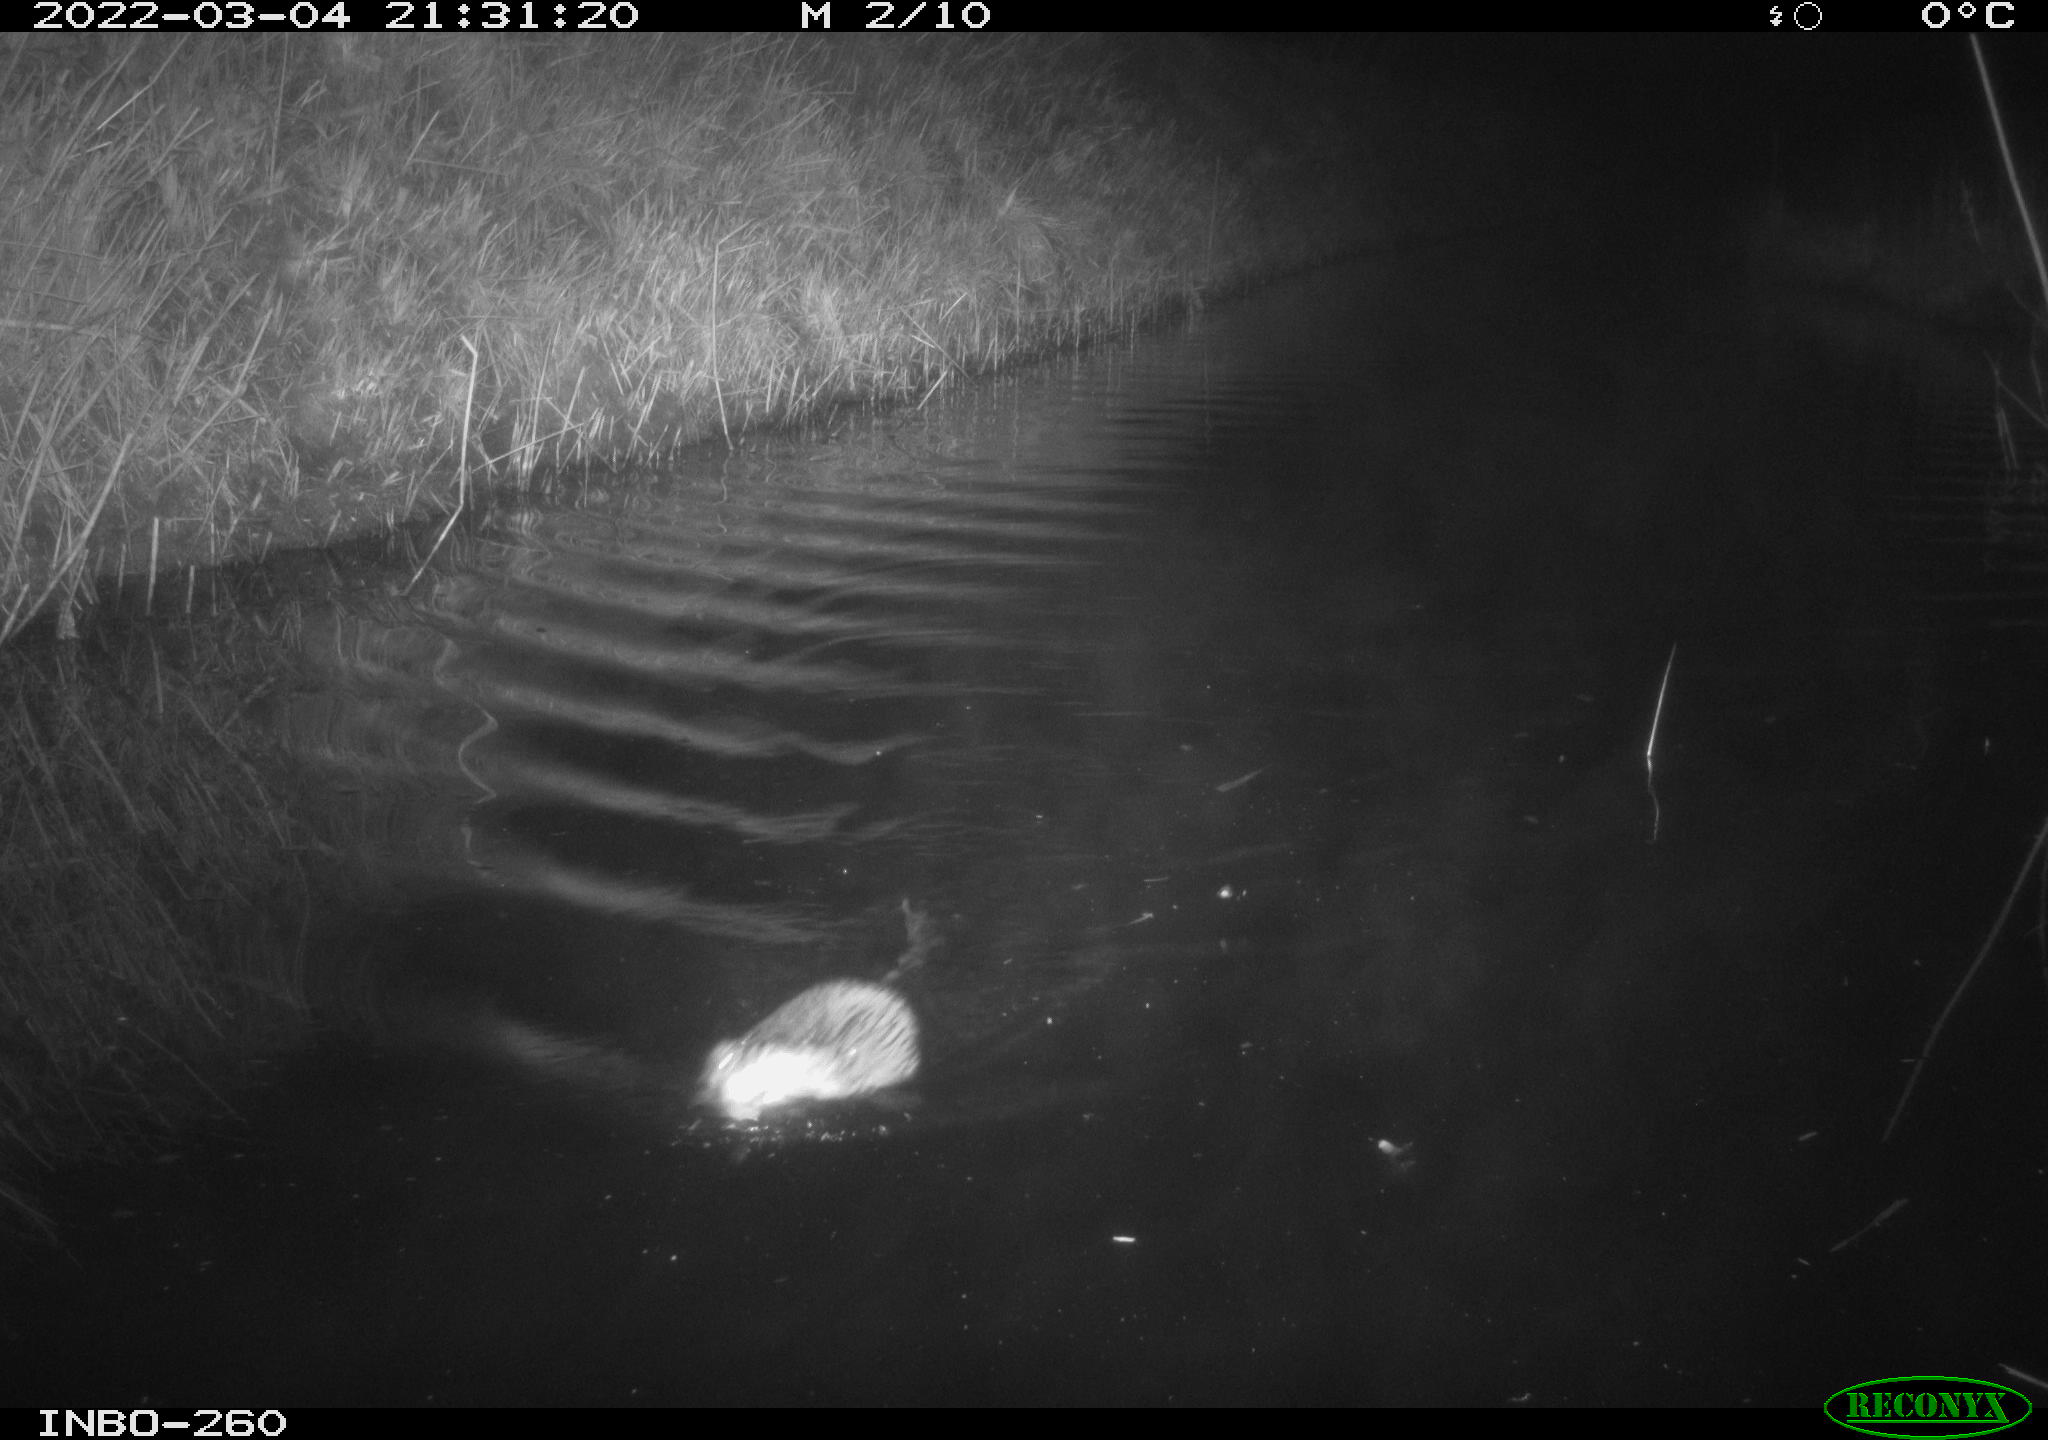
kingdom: Animalia
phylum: Chordata
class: Mammalia
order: Rodentia
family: Cricetidae
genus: Ondatra
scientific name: Ondatra zibethicus
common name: Muskrat
